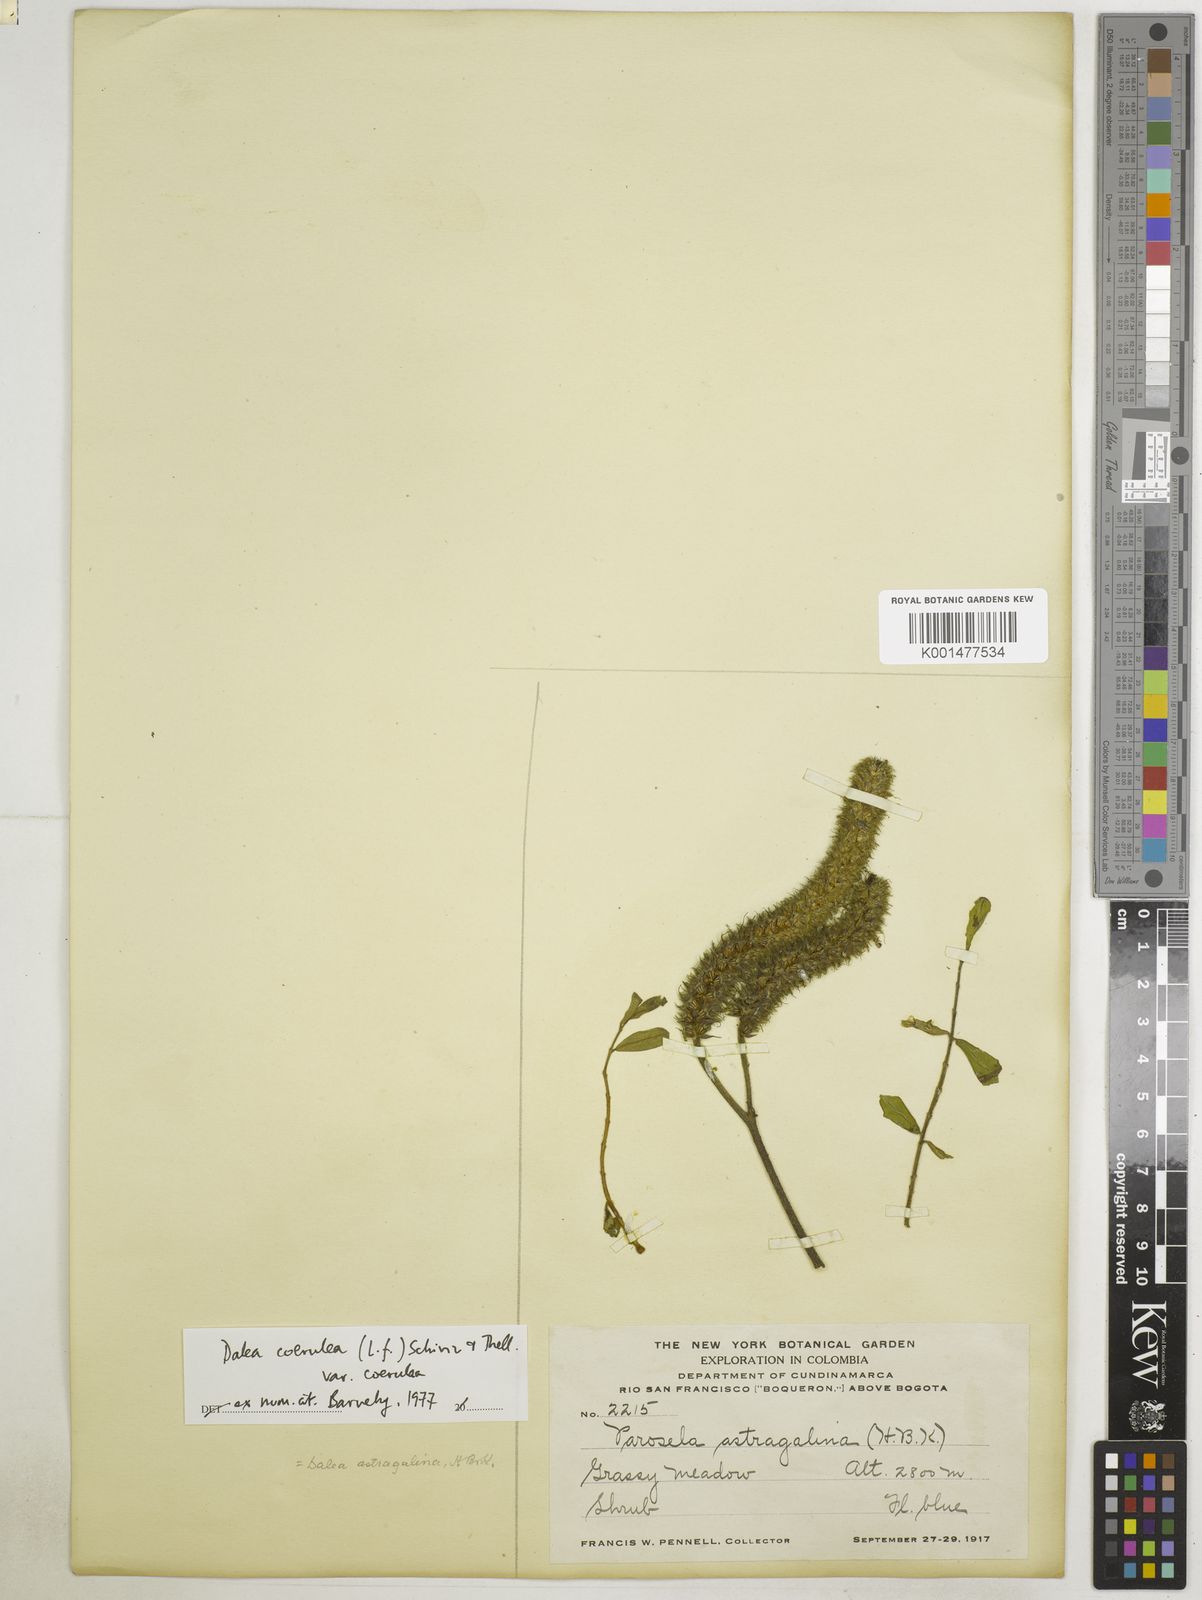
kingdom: Plantae
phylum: Tracheophyta
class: Magnoliopsida
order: Fabales
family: Fabaceae
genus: Dalea
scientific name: Dalea coerulea
